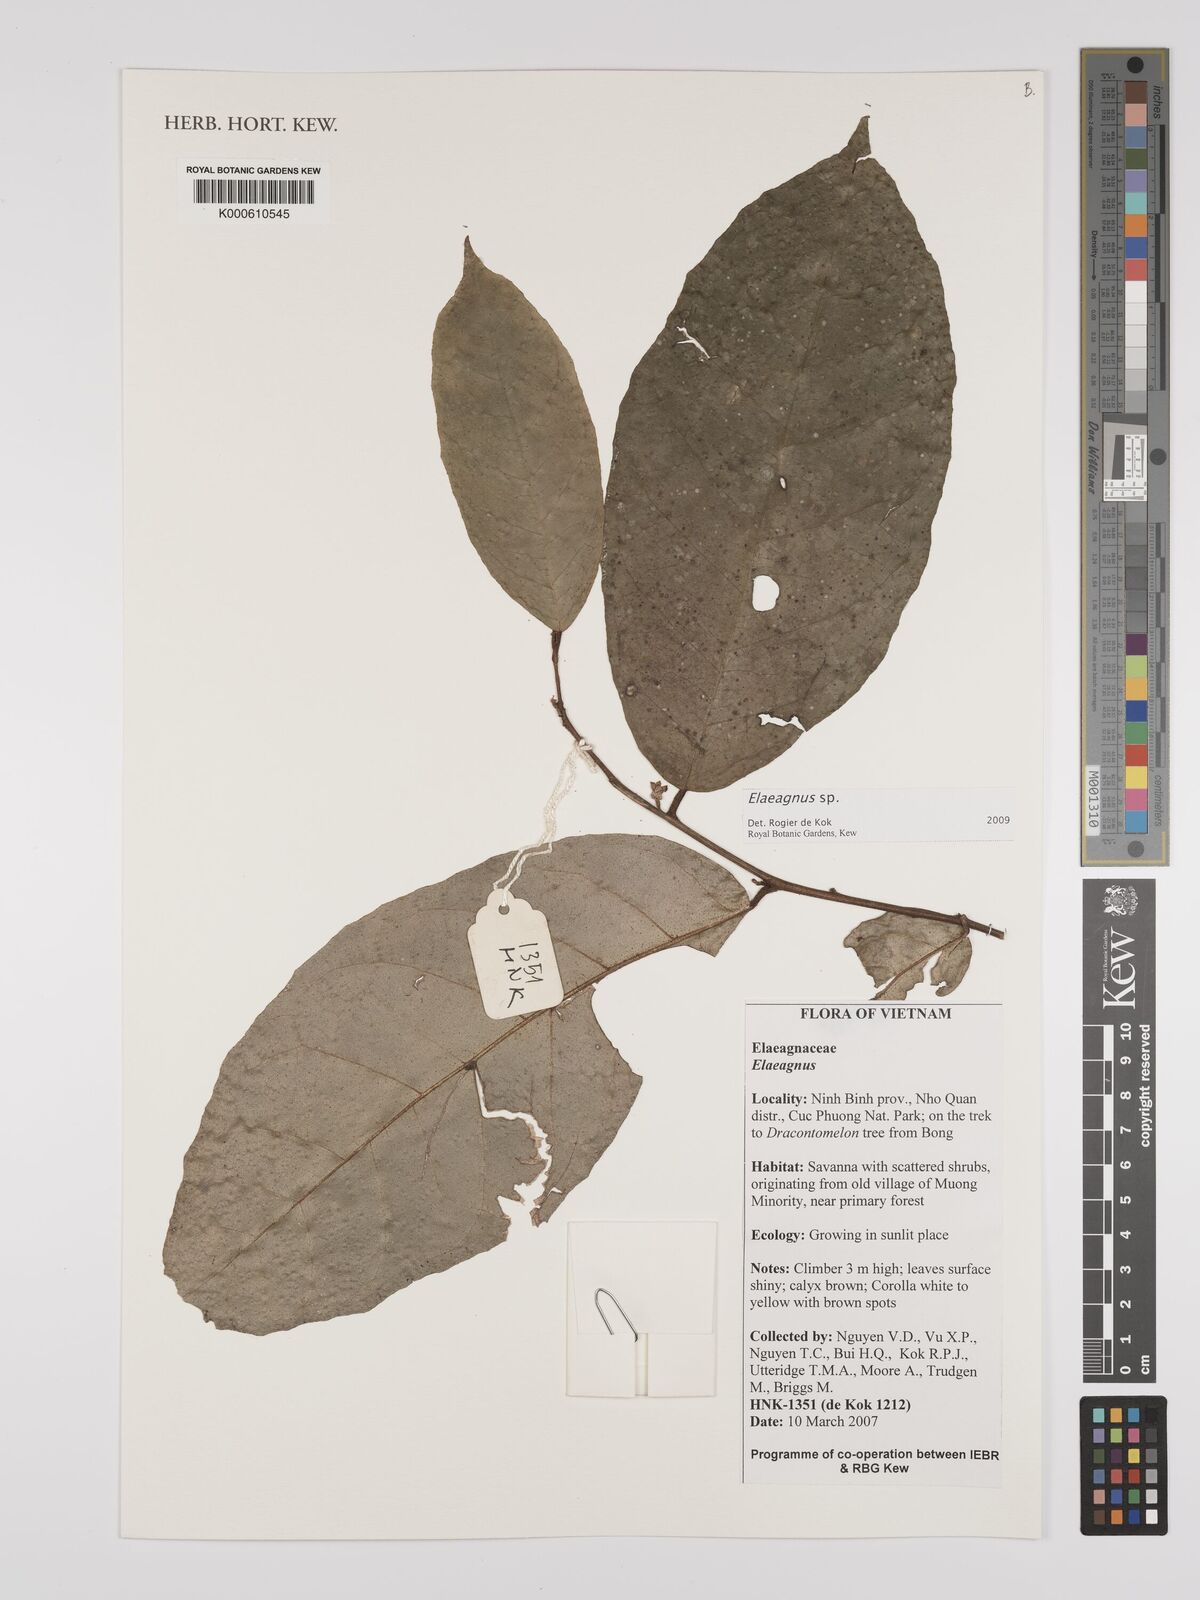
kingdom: Plantae
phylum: Tracheophyta
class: Magnoliopsida
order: Rosales
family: Elaeagnaceae
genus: Elaeagnus
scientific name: Elaeagnus
